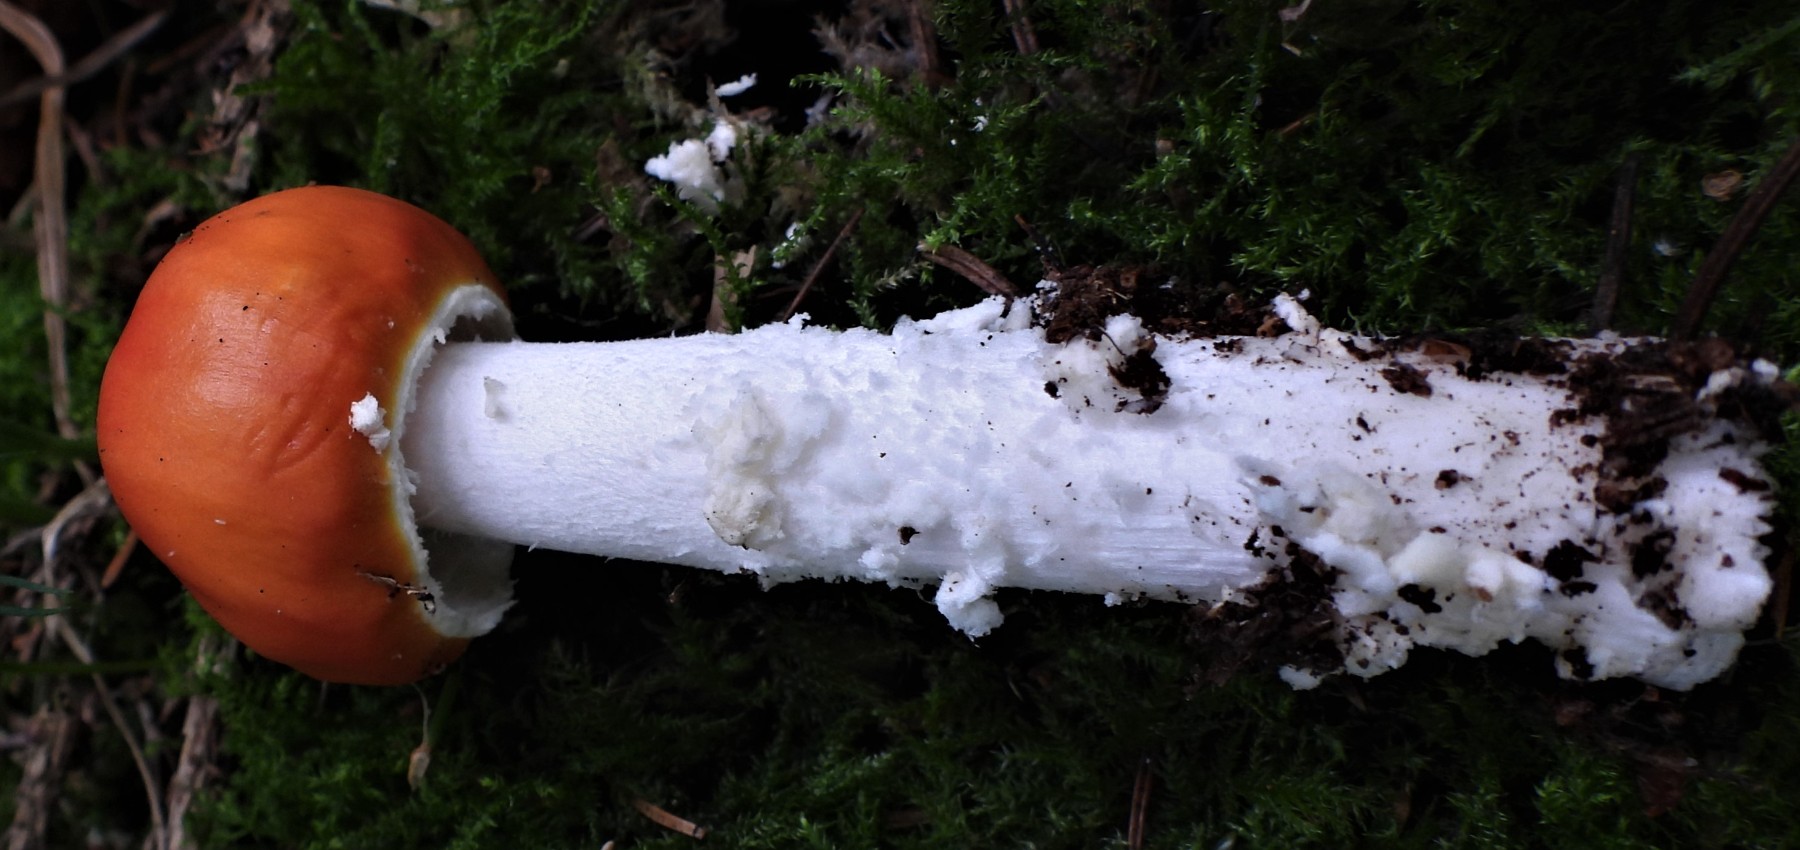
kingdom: Fungi
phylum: Basidiomycota
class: Agaricomycetes
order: Agaricales
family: Amanitaceae
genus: Amanita
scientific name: Amanita muscaria
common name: rød fluesvamp
